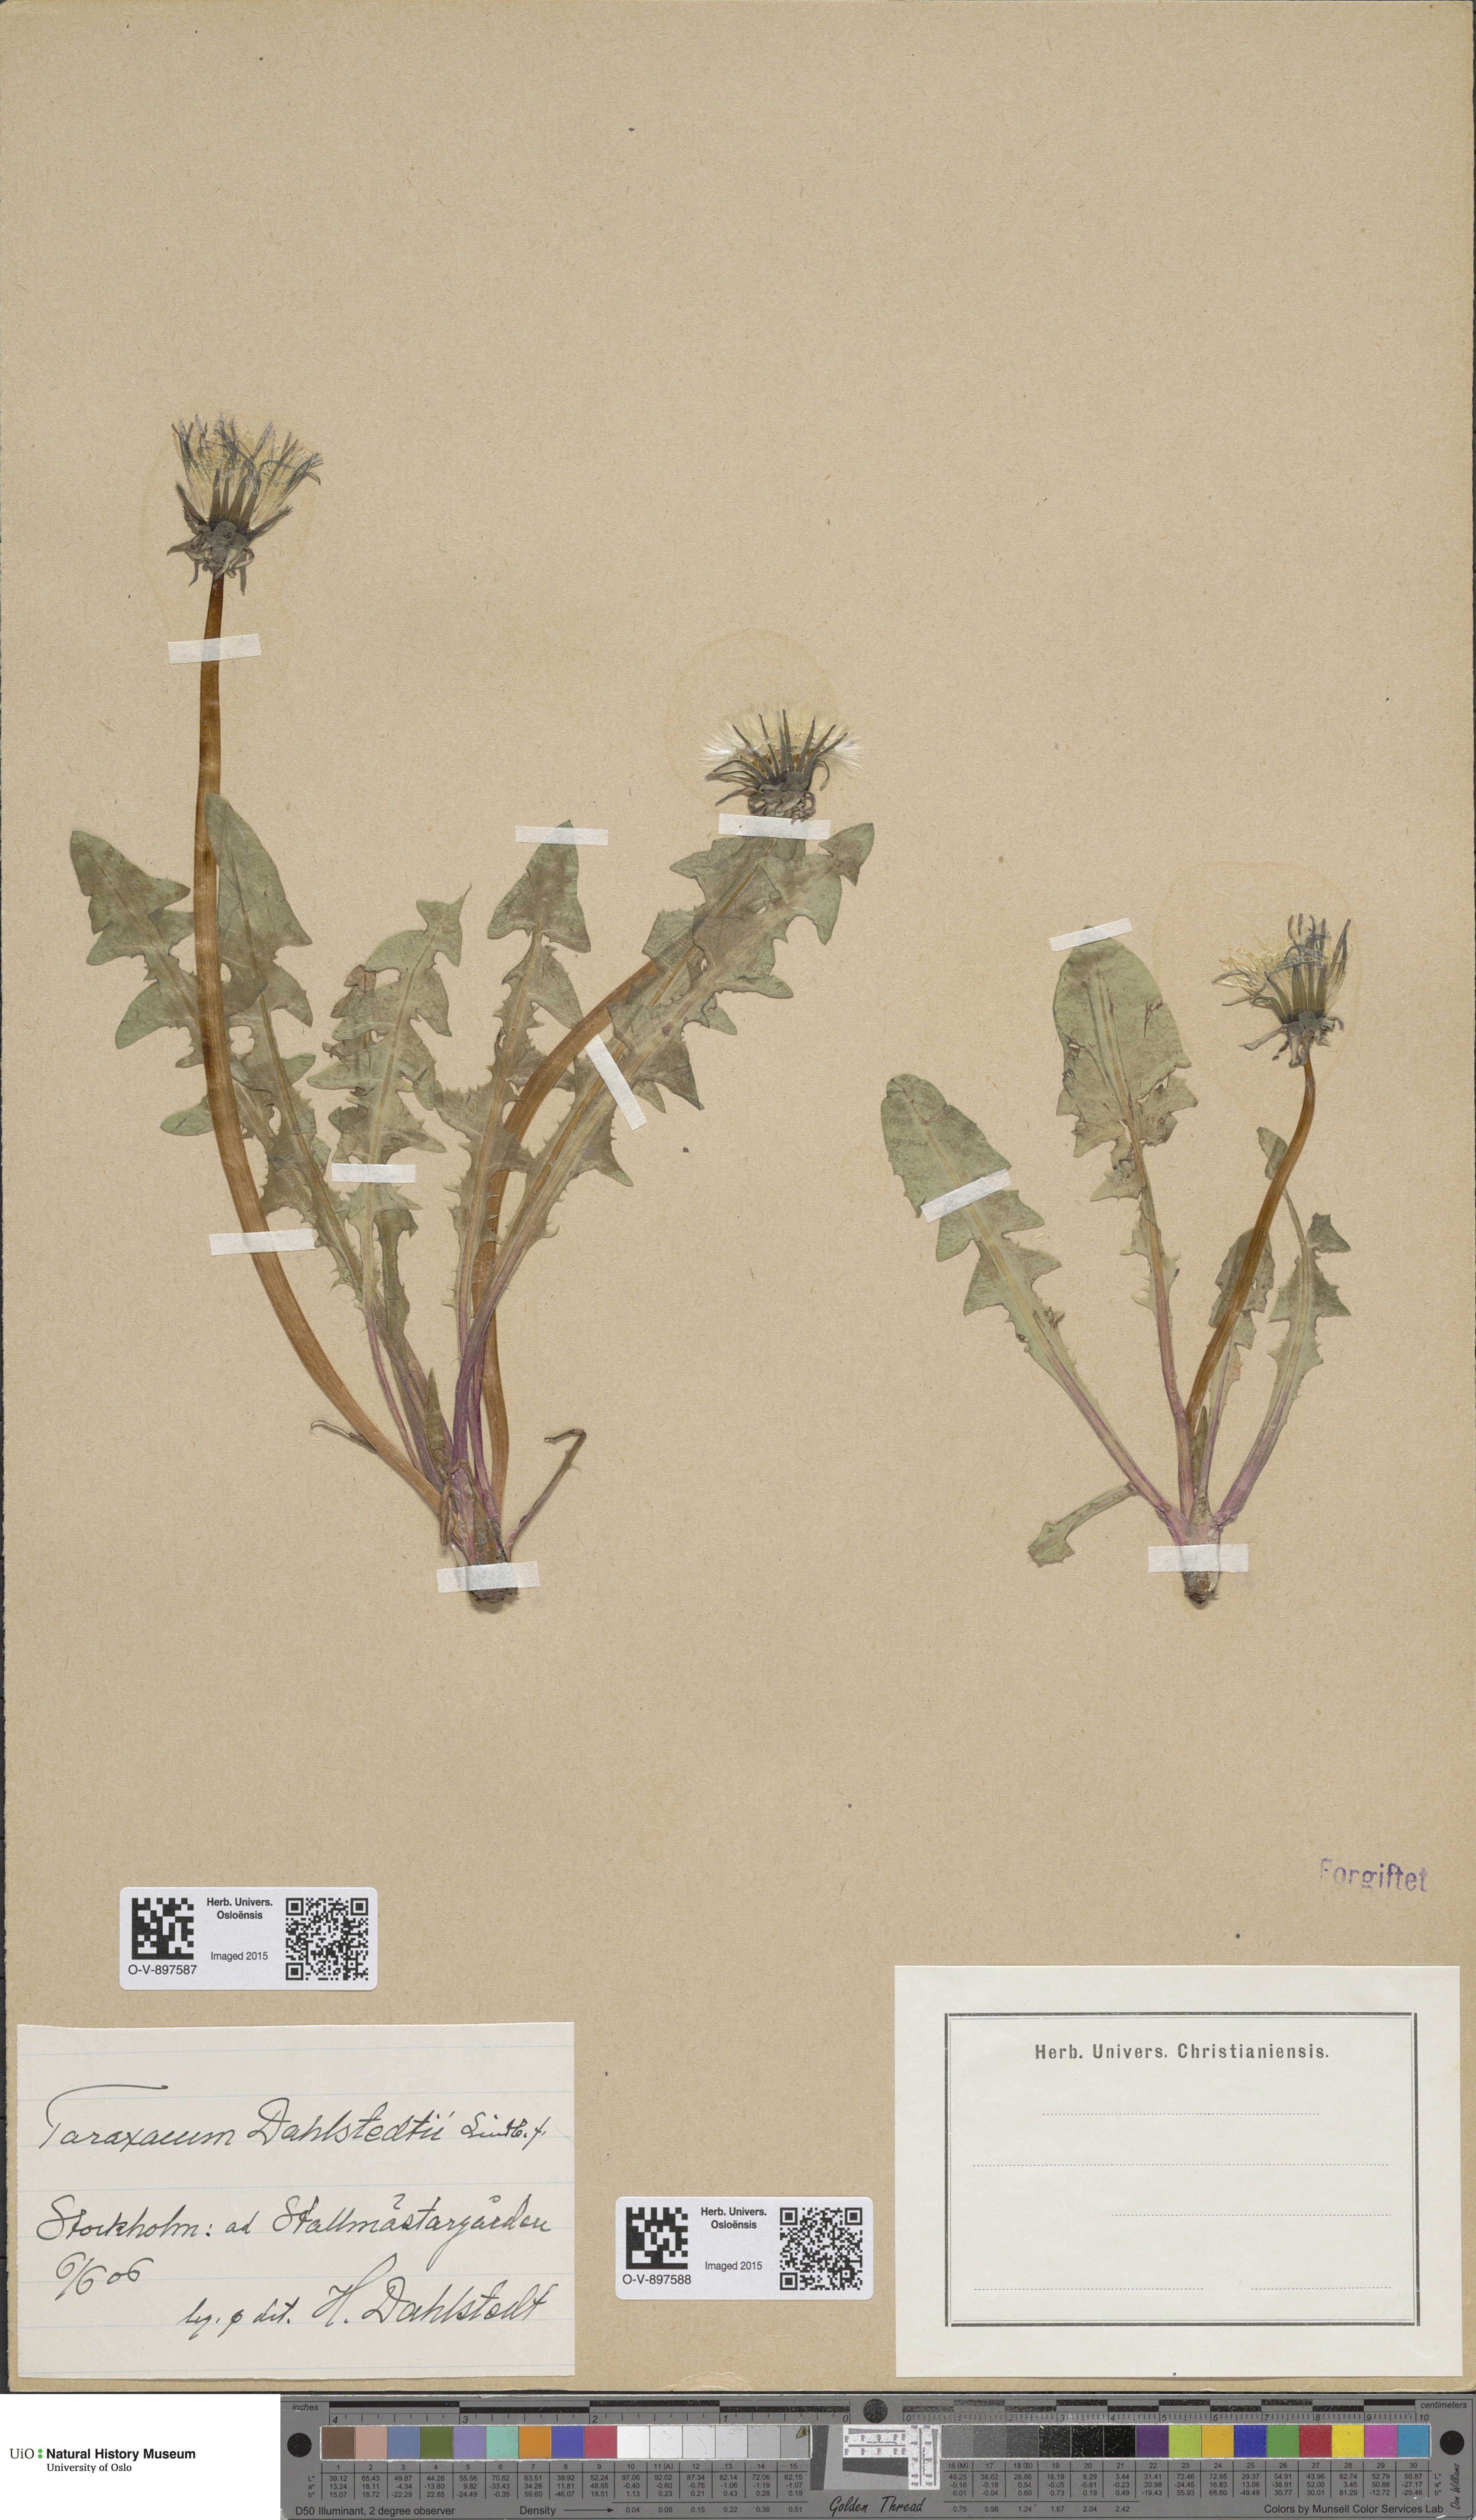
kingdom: Plantae
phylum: Tracheophyta
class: Magnoliopsida
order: Asterales
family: Asteraceae
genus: Taraxacum
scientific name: Taraxacum stenoglossum
